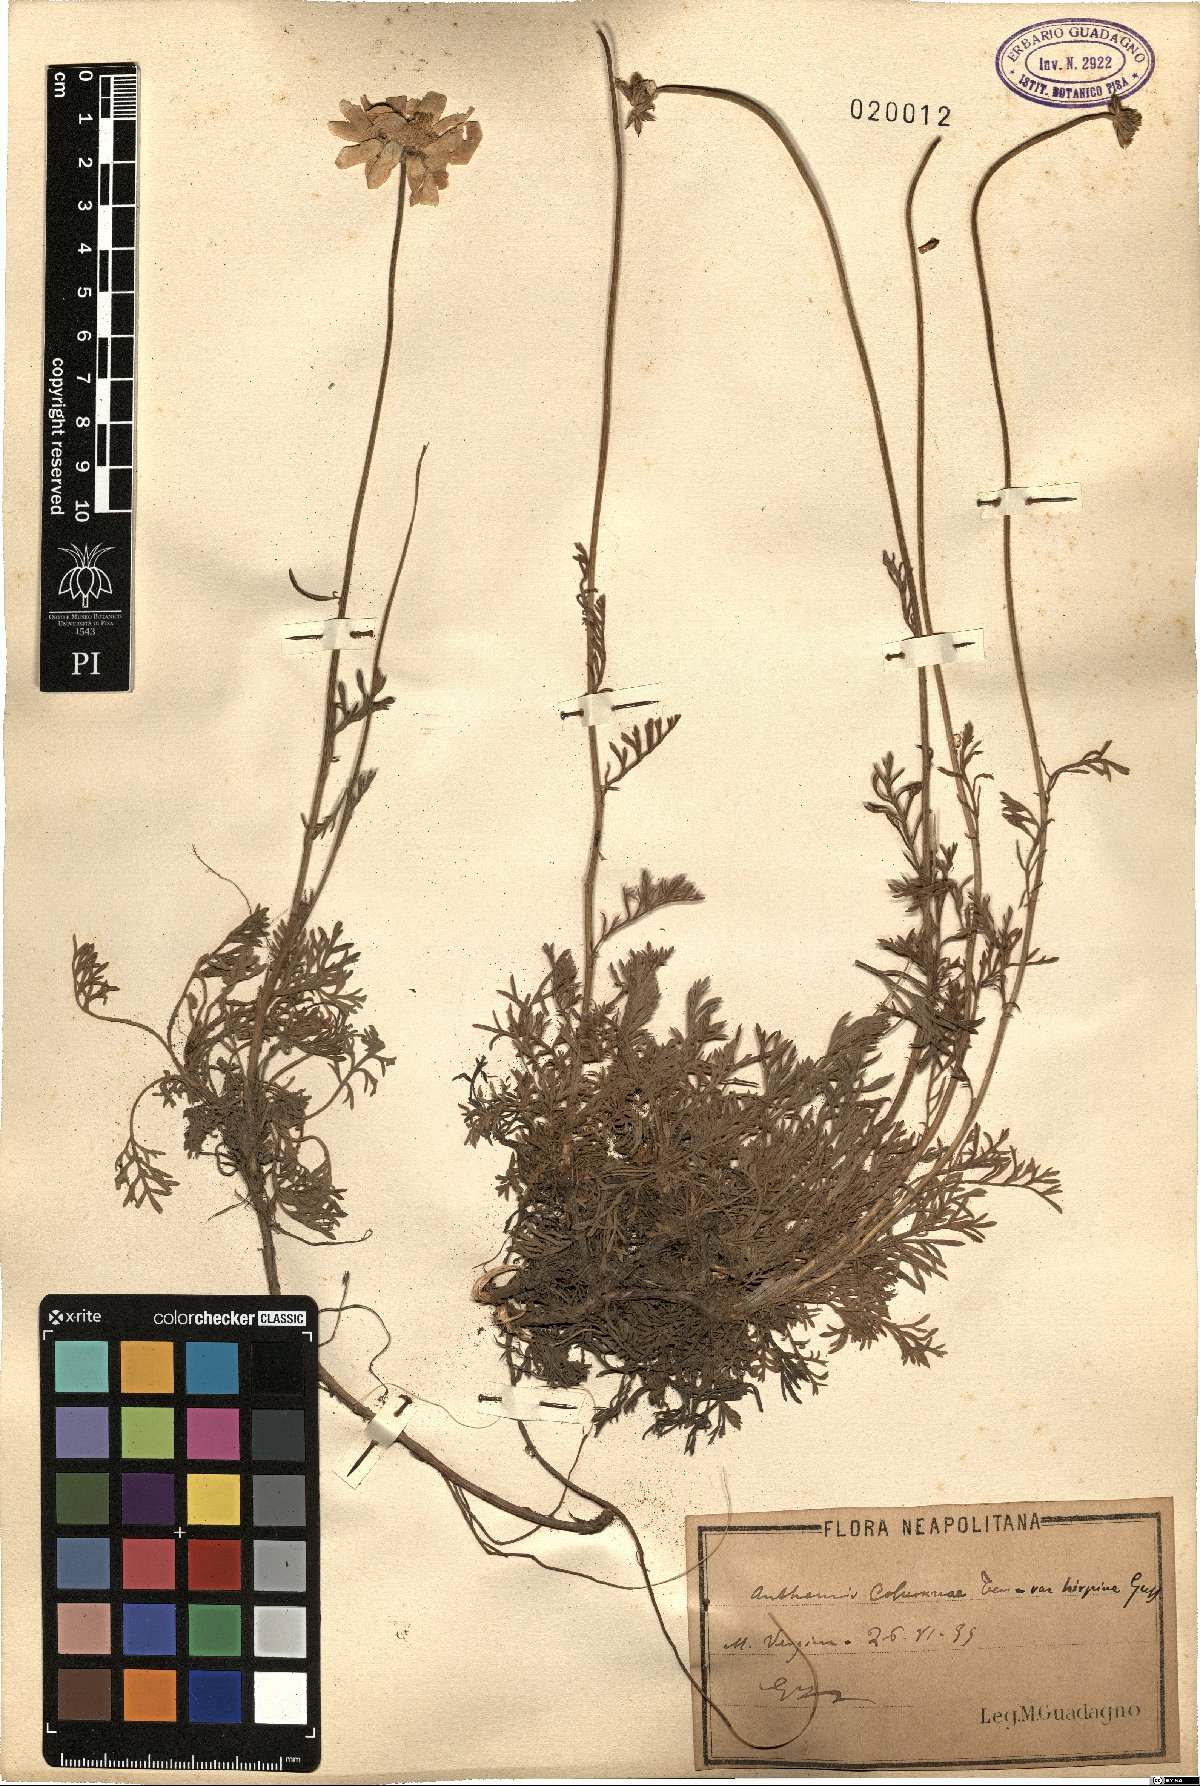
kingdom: Plantae
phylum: Tracheophyta
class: Magnoliopsida
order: Asterales
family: Asteraceae
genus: Anthemis
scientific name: Anthemis cretica
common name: Mountain dog-daisy
